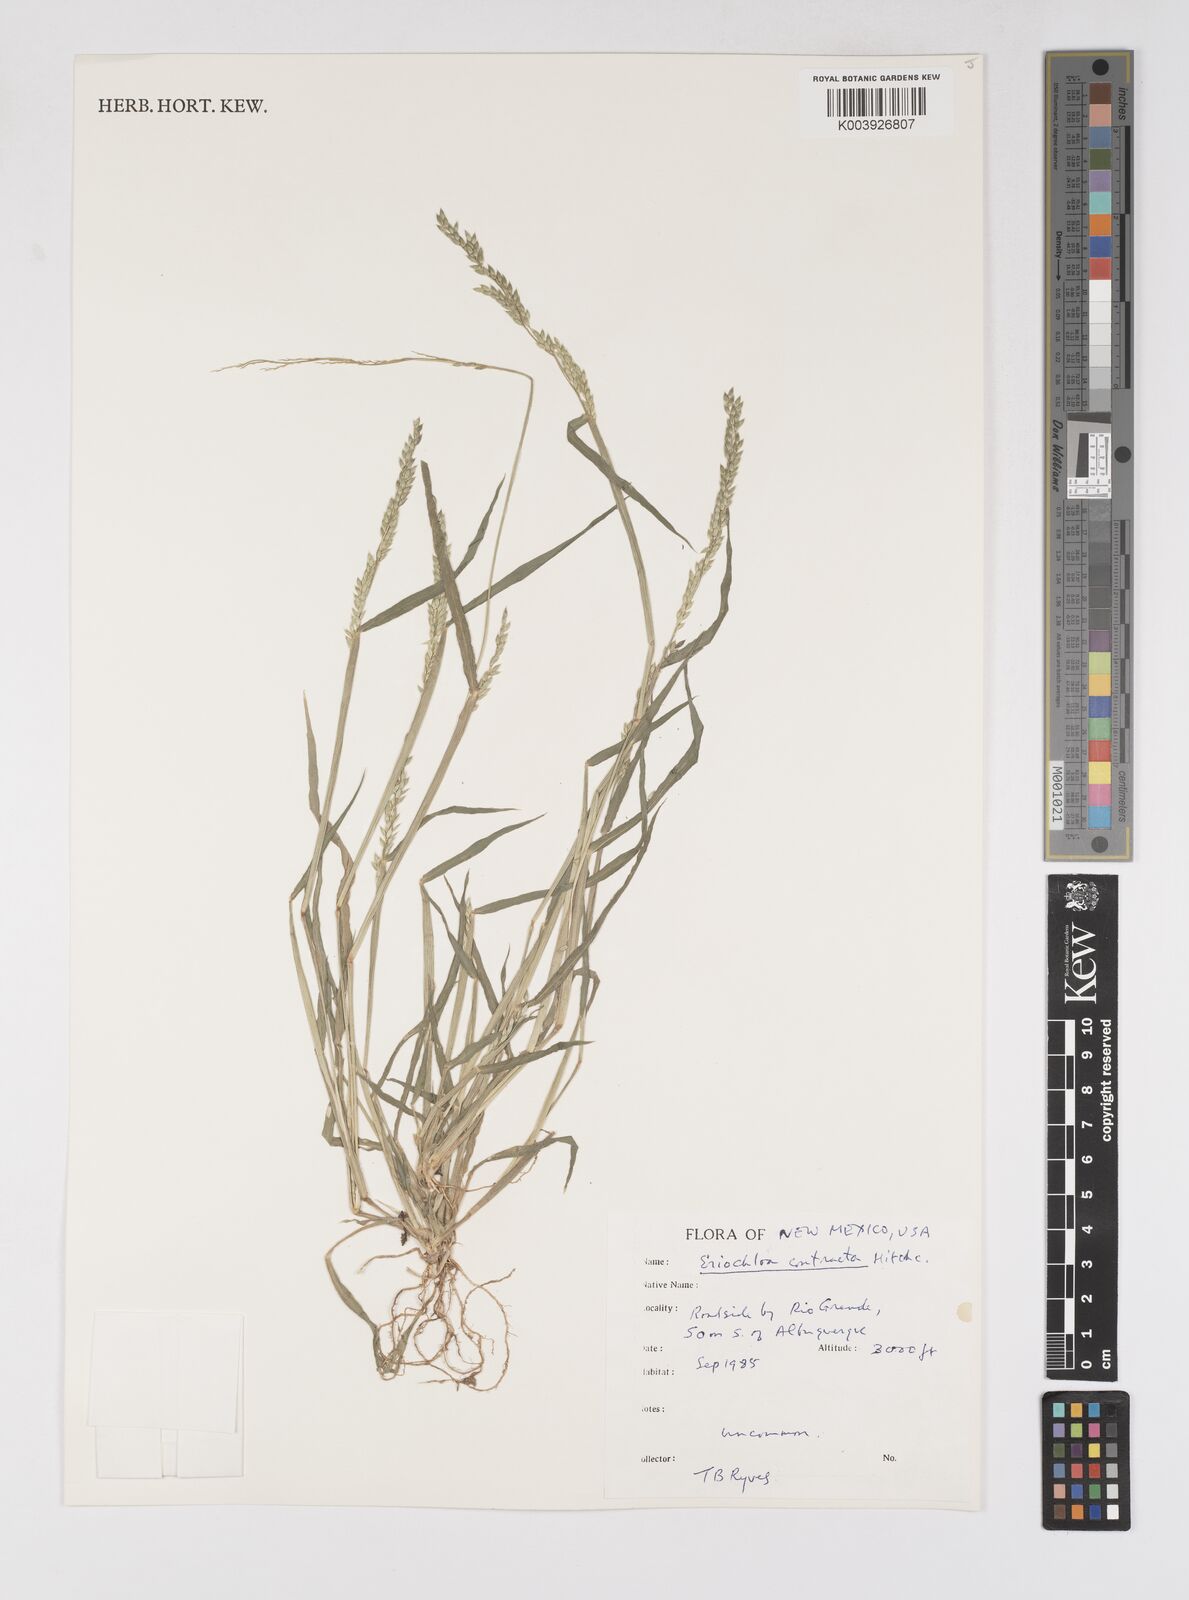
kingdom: Plantae
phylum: Tracheophyta
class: Liliopsida
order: Poales
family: Poaceae
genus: Eriochloa
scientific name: Eriochloa contracta
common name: Prairie cup grass
